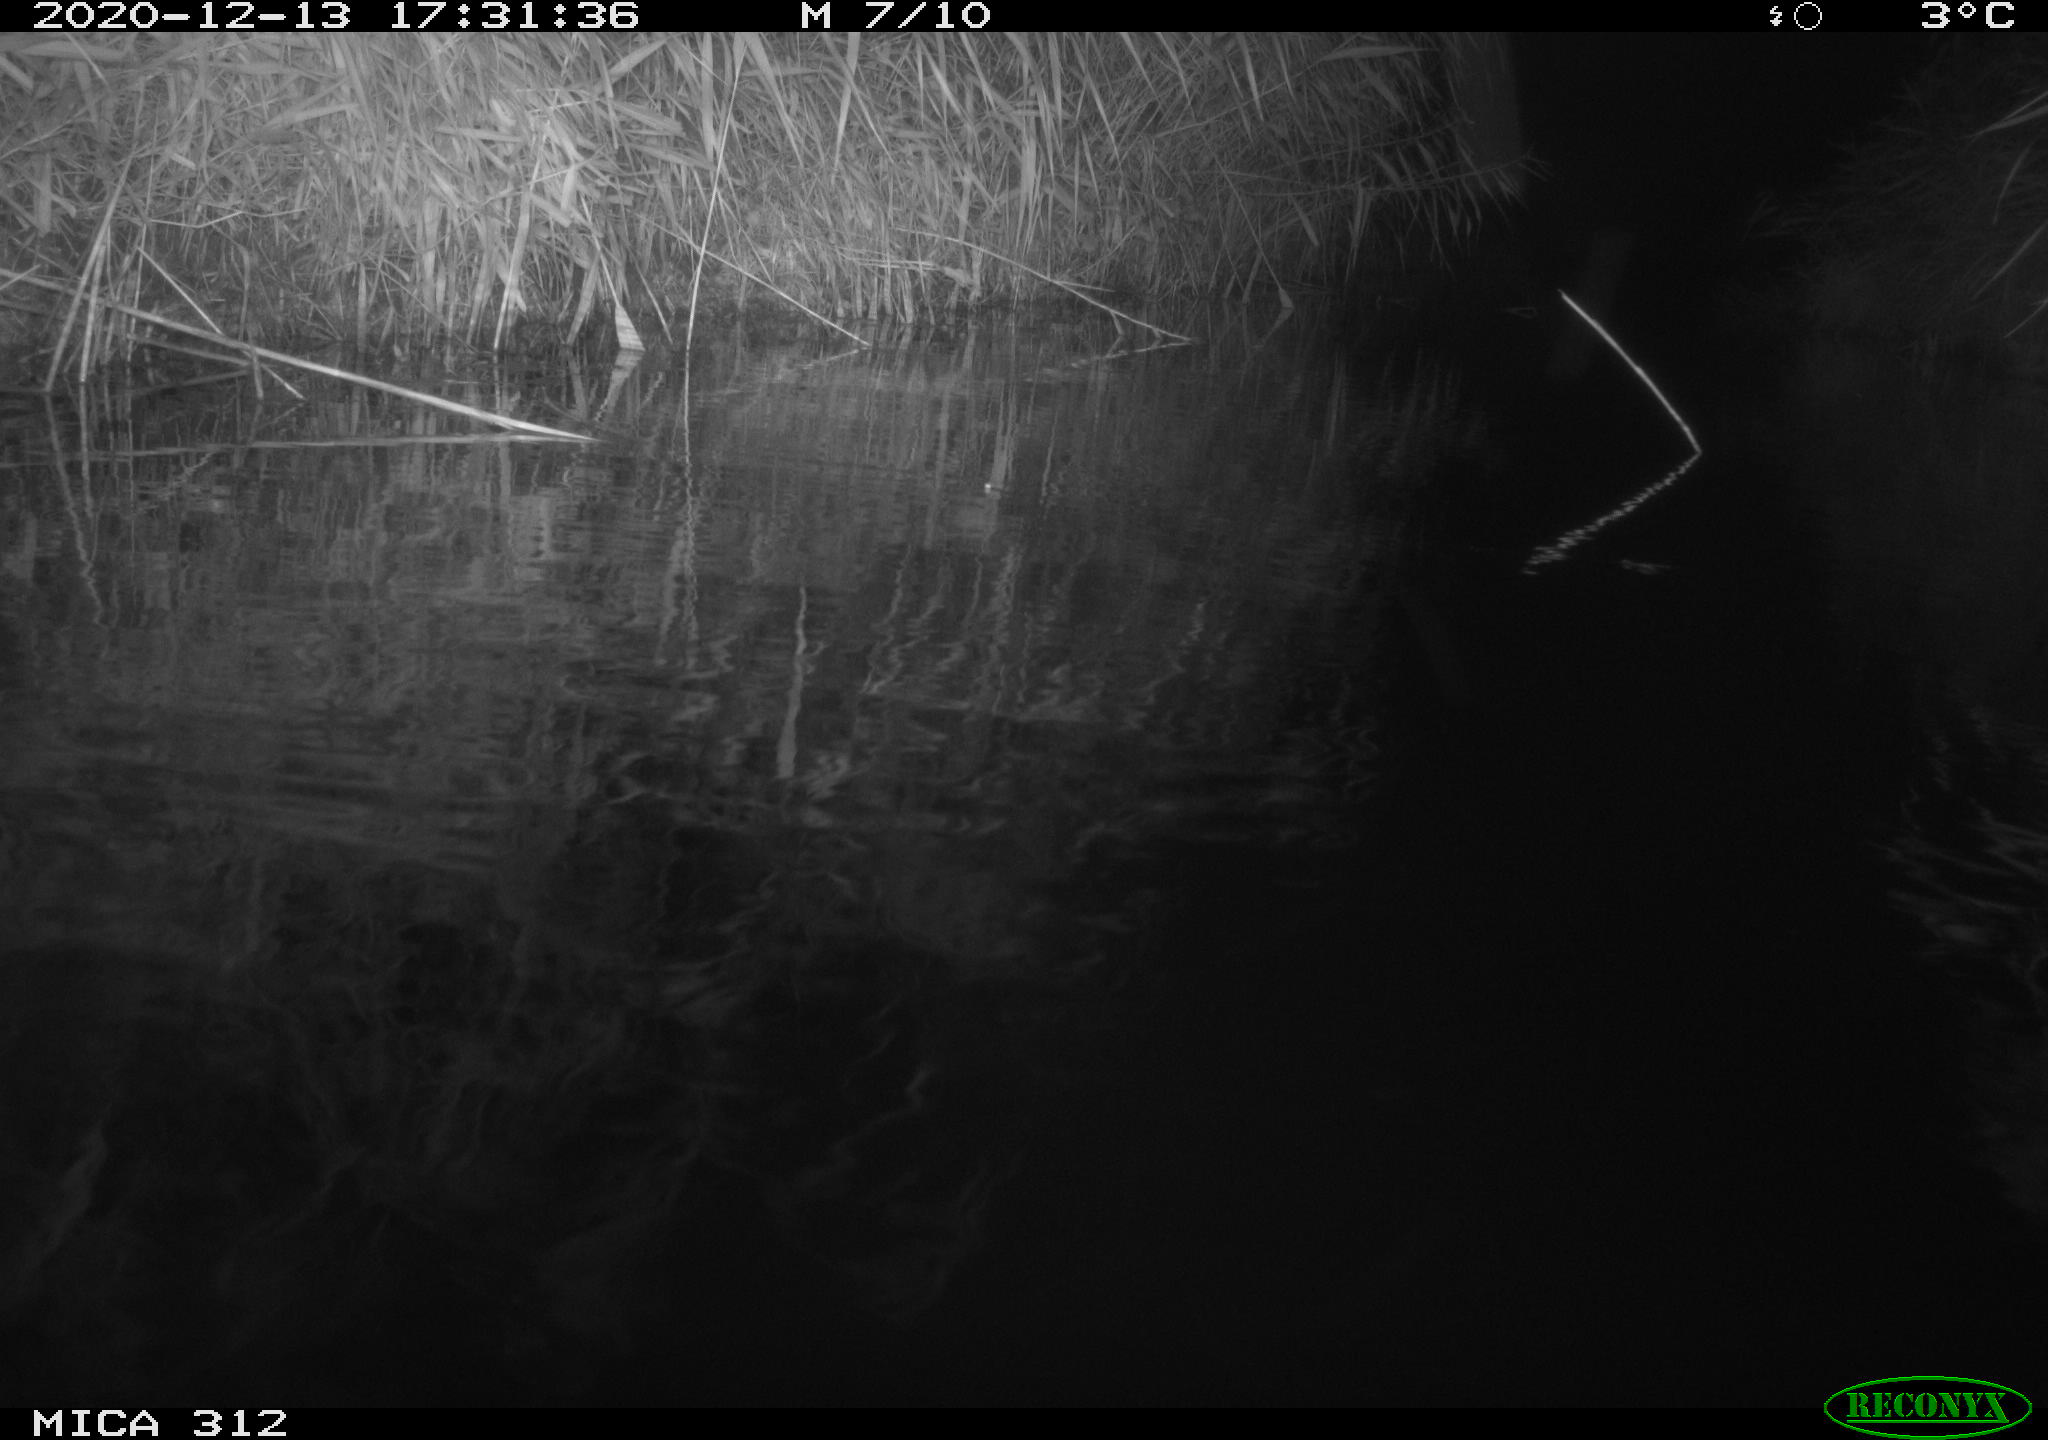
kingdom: Animalia
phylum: Chordata
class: Aves
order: Gruiformes
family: Rallidae
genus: Gallinula
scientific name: Gallinula chloropus
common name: Common moorhen
